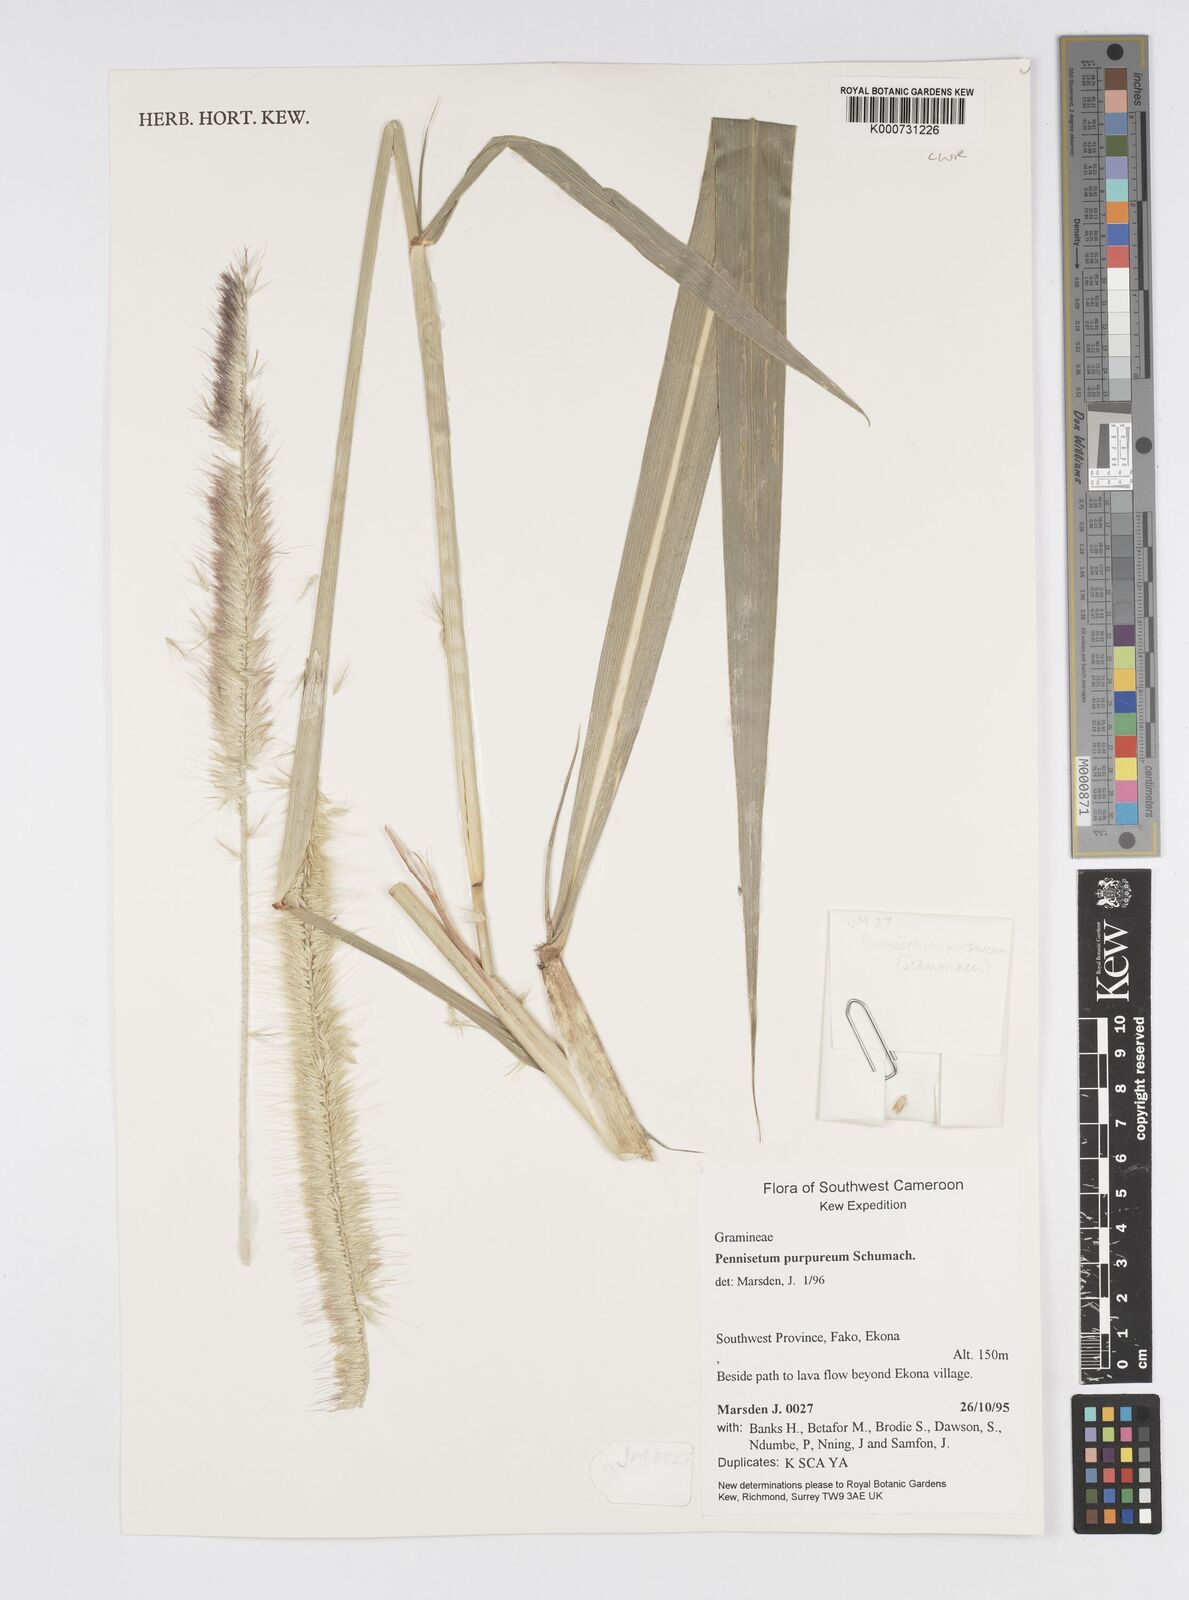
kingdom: Plantae
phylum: Tracheophyta
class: Liliopsida
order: Poales
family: Poaceae
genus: Cenchrus
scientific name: Cenchrus purpureus
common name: Elephant grass
